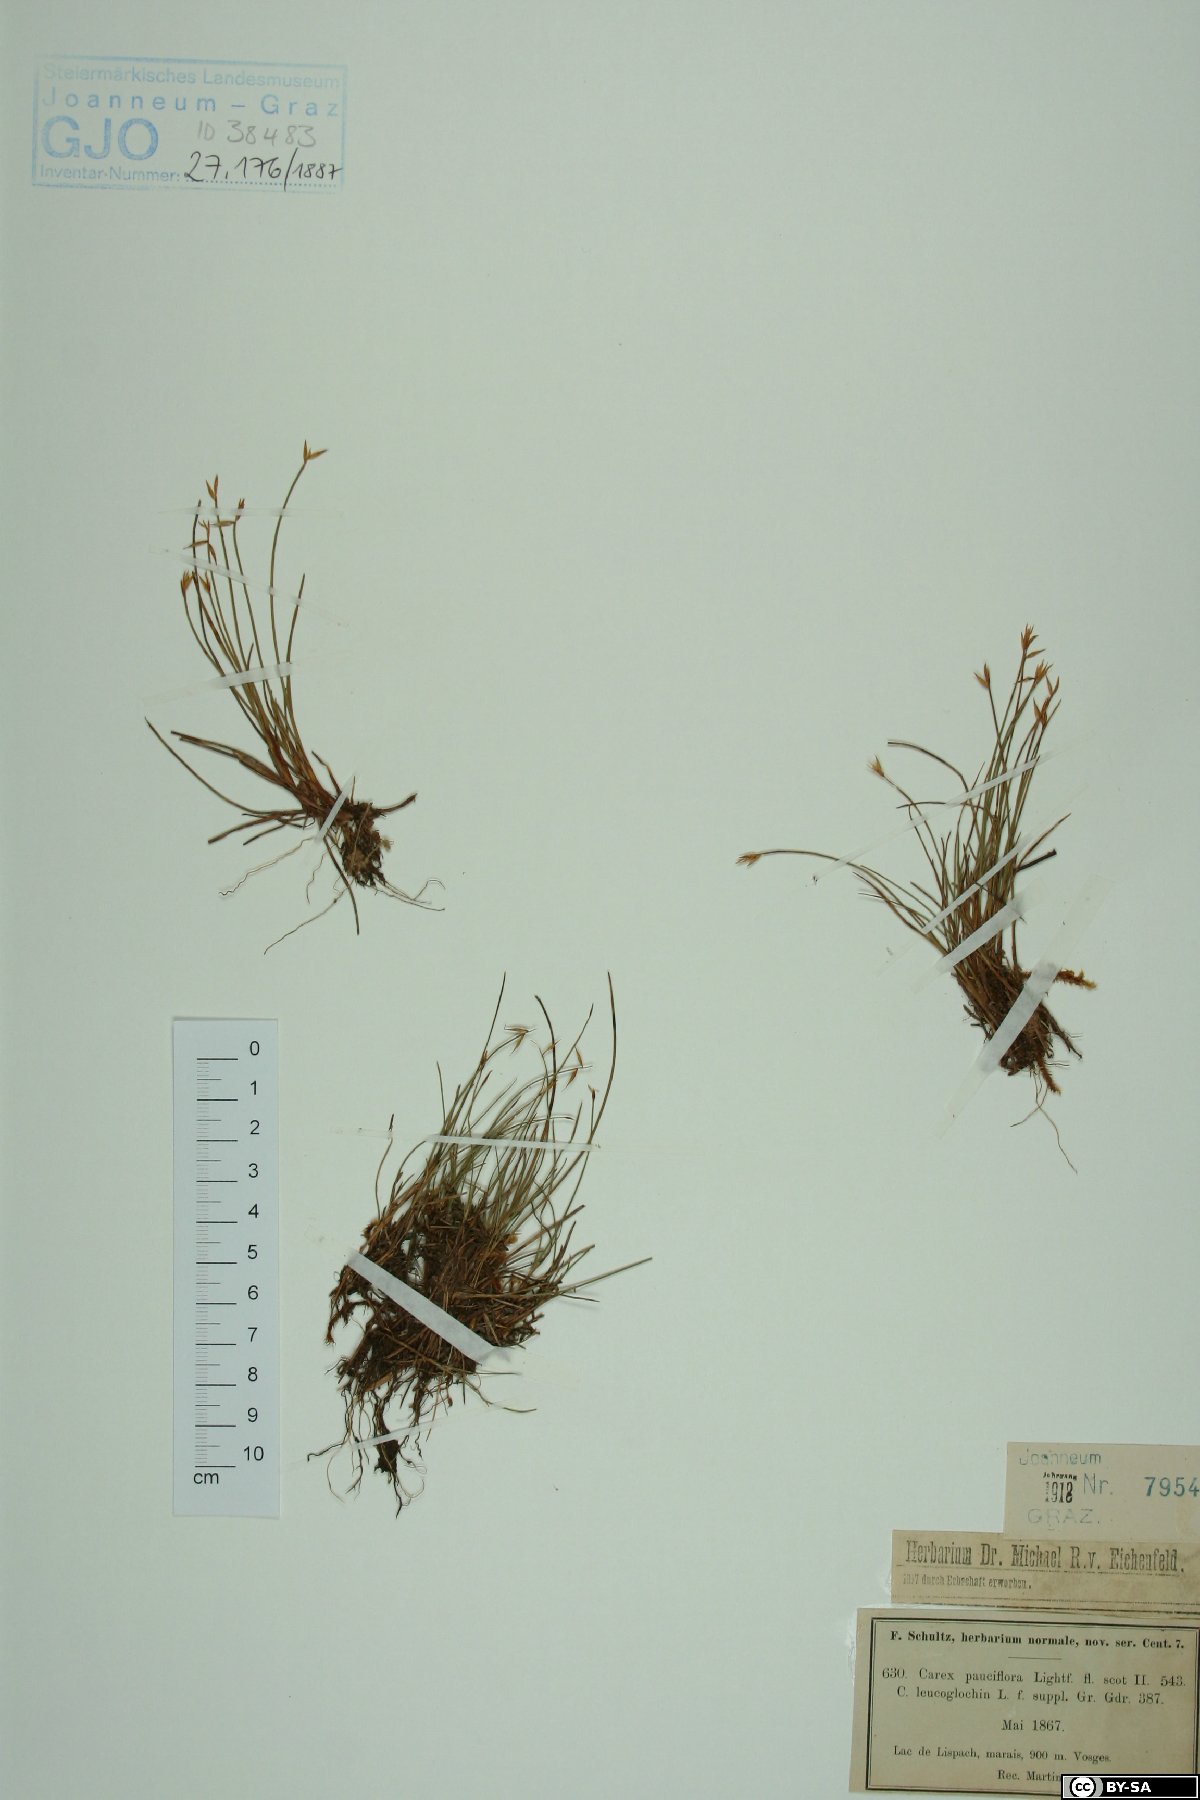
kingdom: Plantae
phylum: Tracheophyta
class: Liliopsida
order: Poales
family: Cyperaceae
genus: Carex
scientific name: Carex pauciflora
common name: Few-flowered sedge
